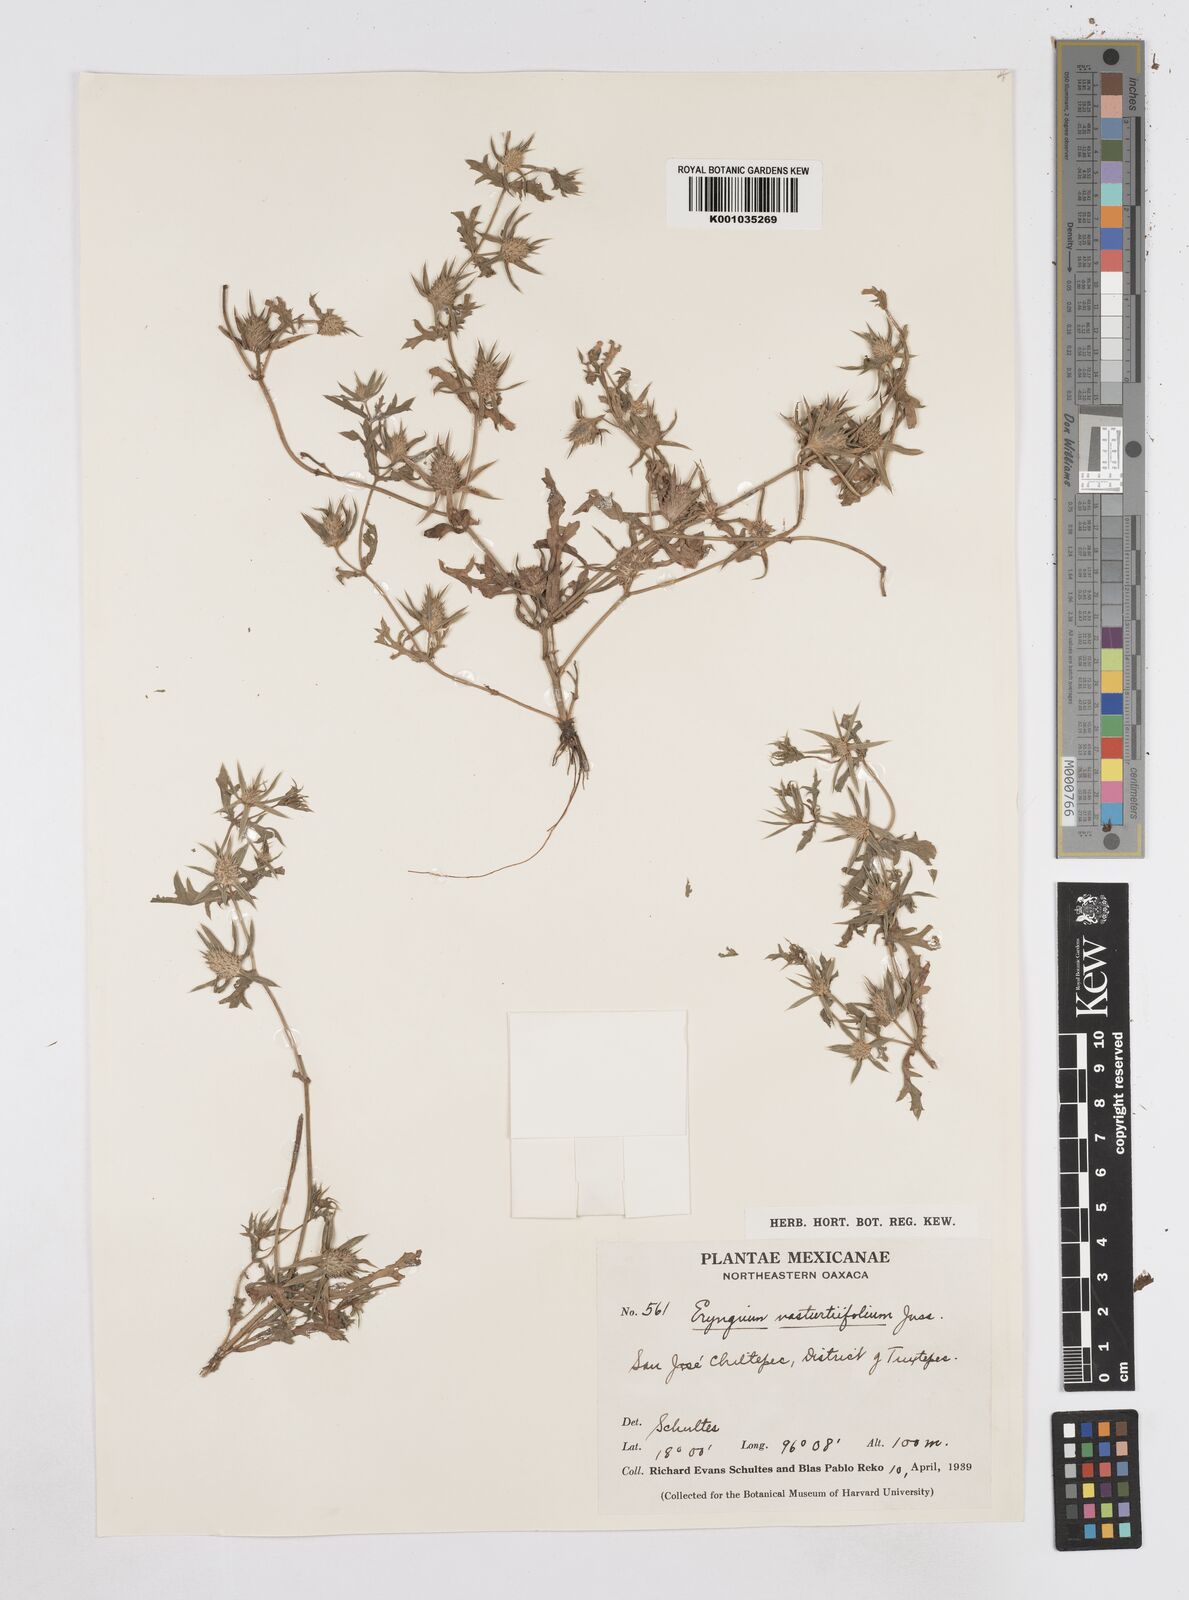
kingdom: Plantae
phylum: Tracheophyta
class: Magnoliopsida
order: Apiales
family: Apiaceae
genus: Eryngium
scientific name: Eryngium nasturtiifolium
